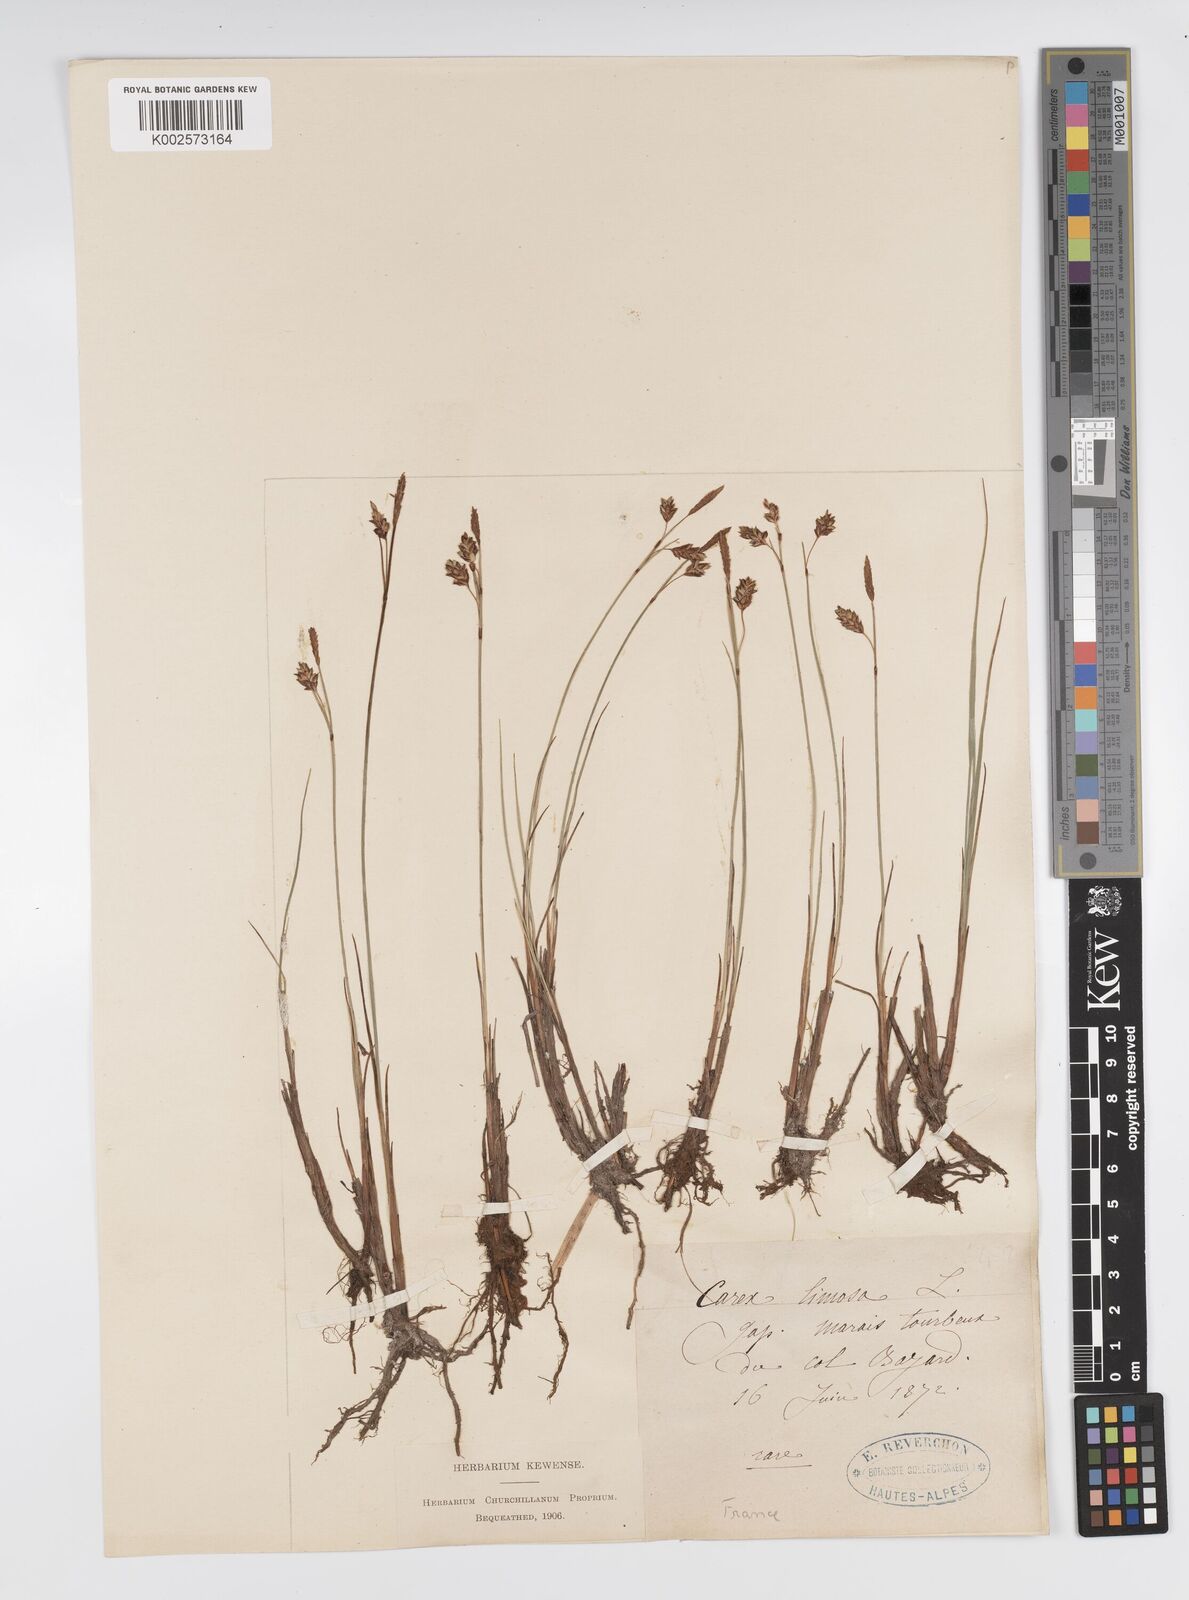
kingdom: Plantae
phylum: Tracheophyta
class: Liliopsida
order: Poales
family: Cyperaceae
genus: Carex
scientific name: Carex limosa
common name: Bog sedge
